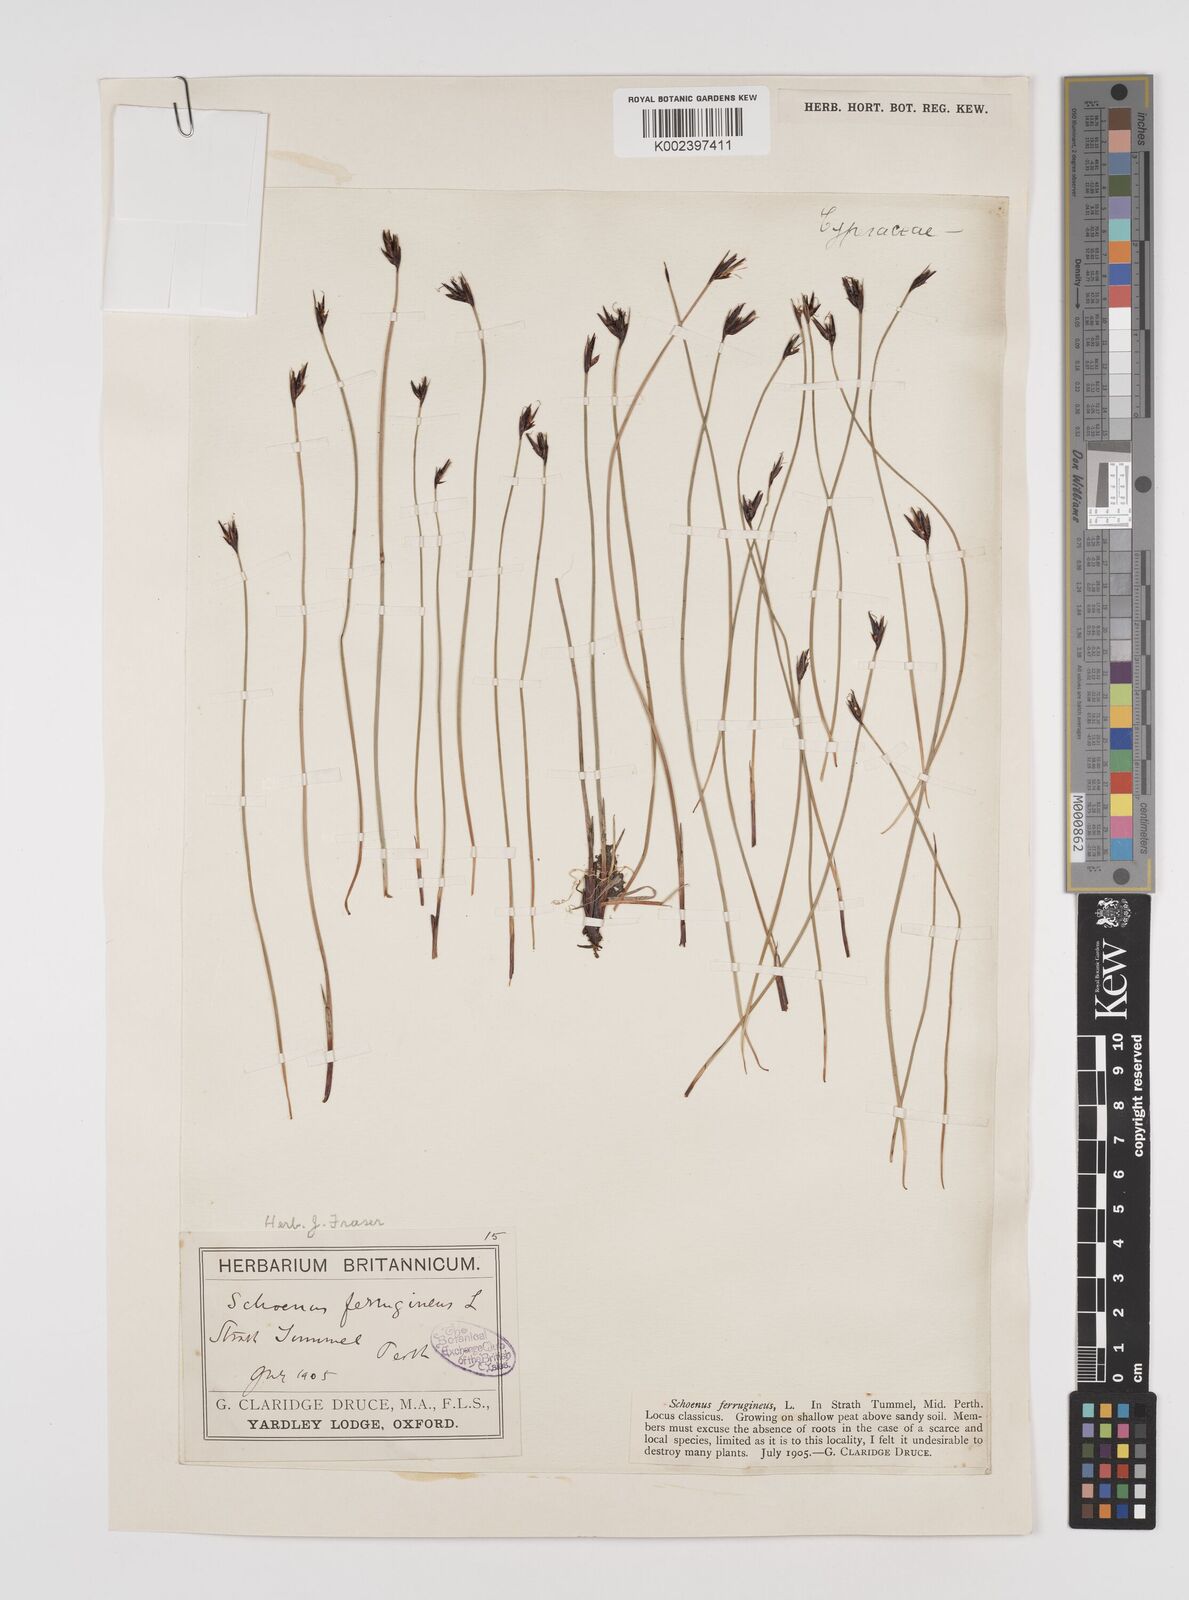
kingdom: Plantae
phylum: Tracheophyta
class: Liliopsida
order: Poales
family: Cyperaceae
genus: Schoenus
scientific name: Schoenus ferrugineus
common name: Brown bog-rush
